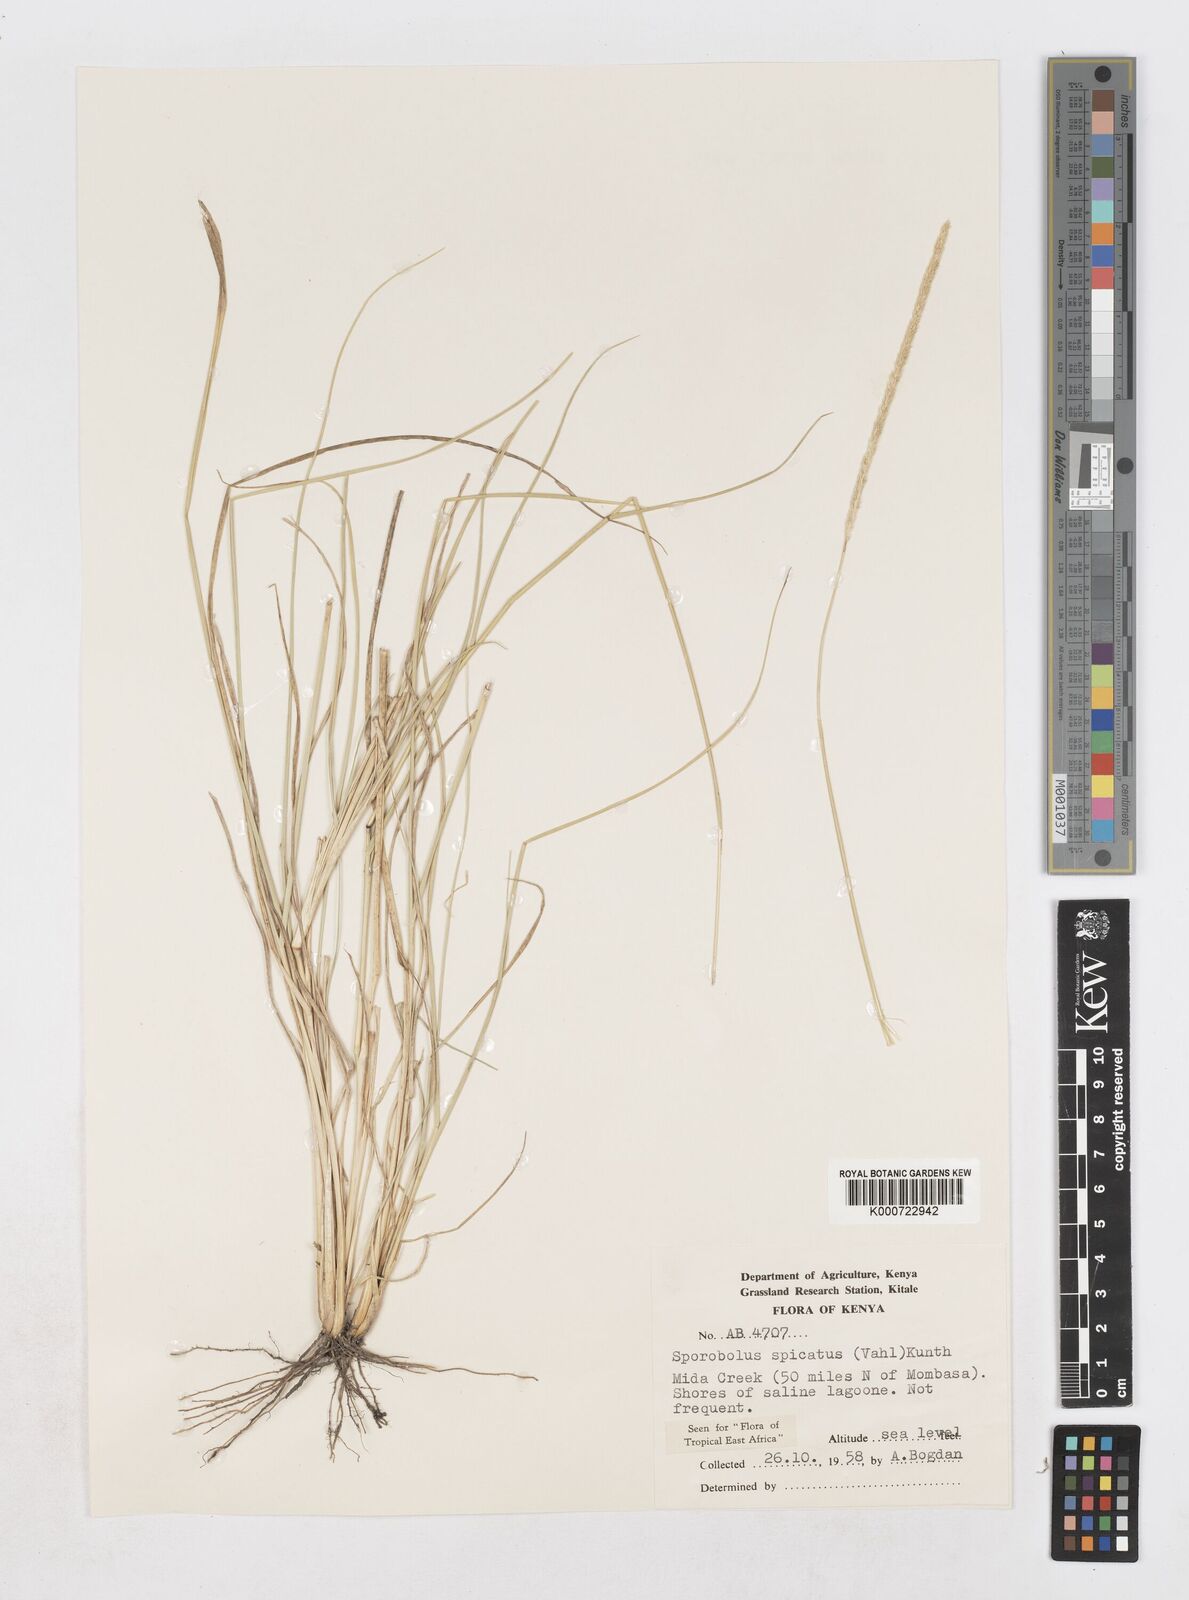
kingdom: Plantae
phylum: Tracheophyta
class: Liliopsida
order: Poales
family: Poaceae
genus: Sporobolus
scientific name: Sporobolus spicatus
